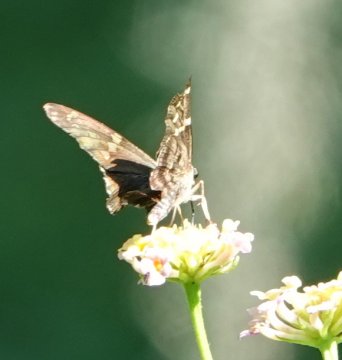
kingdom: Animalia
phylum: Arthropoda
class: Insecta
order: Lepidoptera
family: Hesperiidae
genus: Urbanus
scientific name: Urbanus proteus
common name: Long-tailed Skipper
